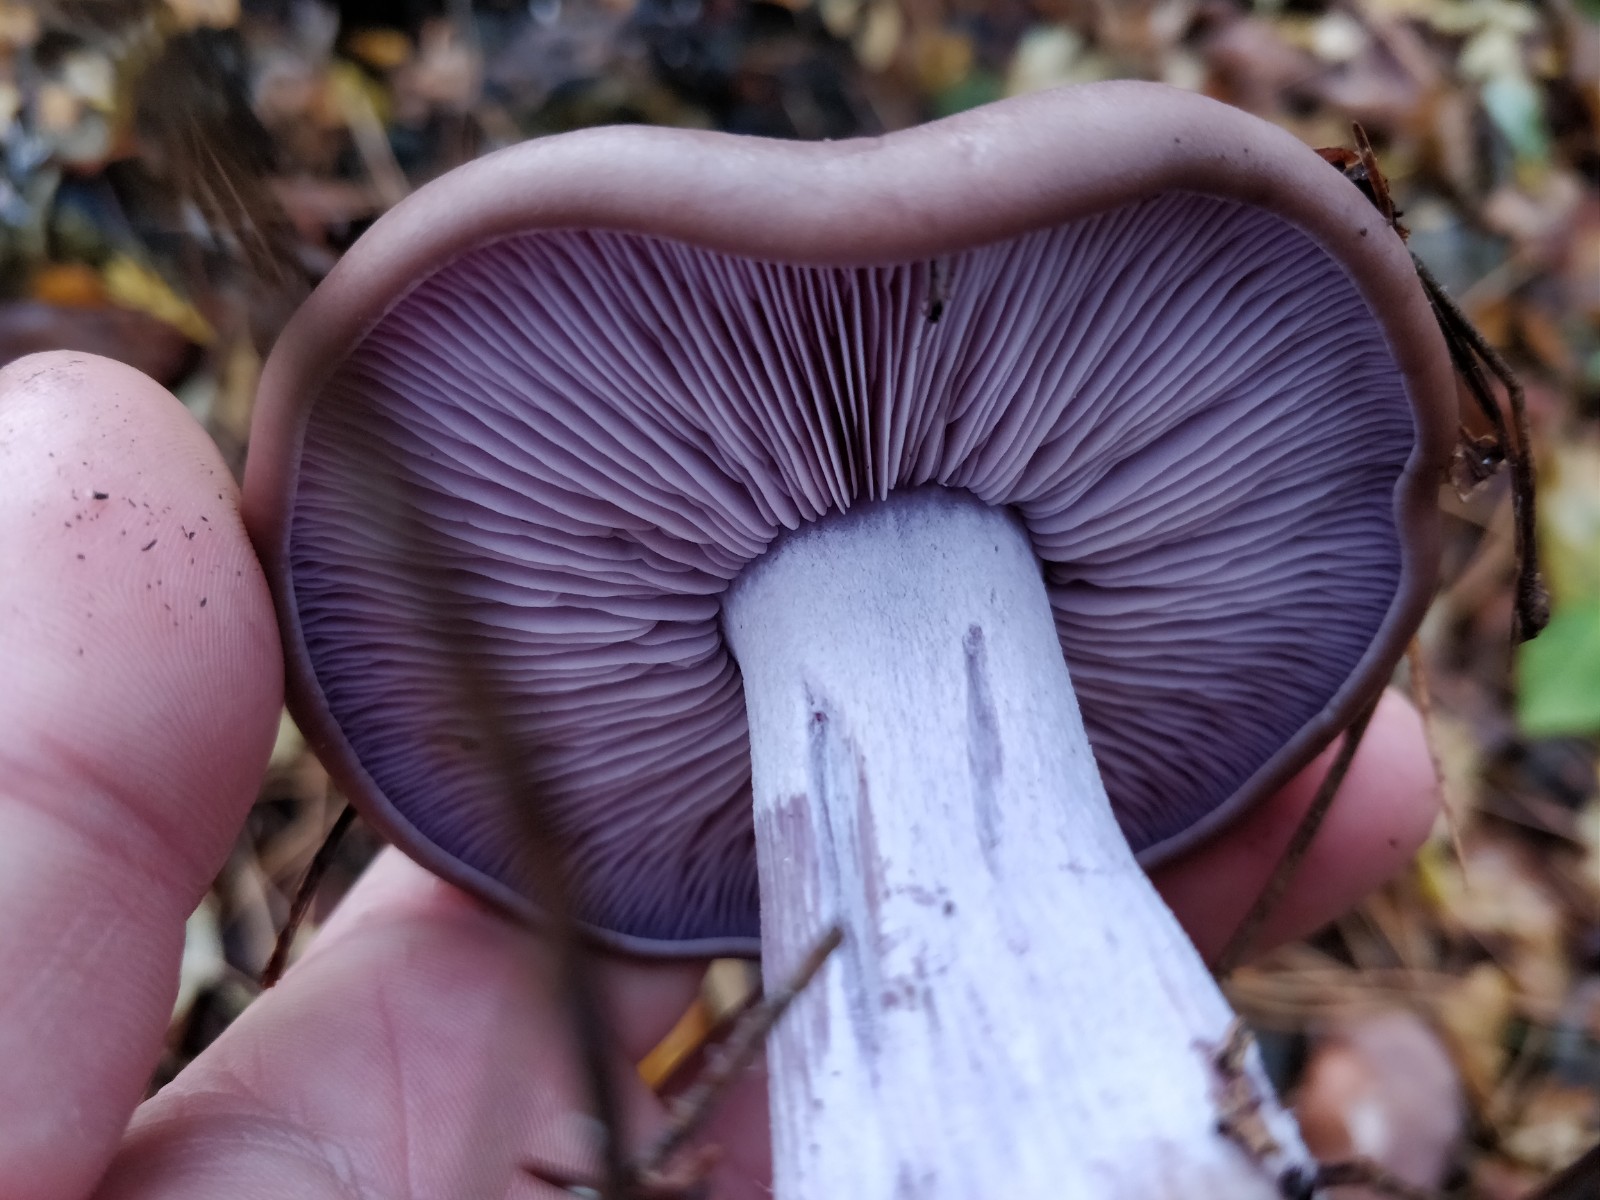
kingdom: Fungi
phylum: Basidiomycota
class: Agaricomycetes
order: Agaricales
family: Tricholomataceae
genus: Lepista
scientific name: Lepista nuda
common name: violet hekseringshat
